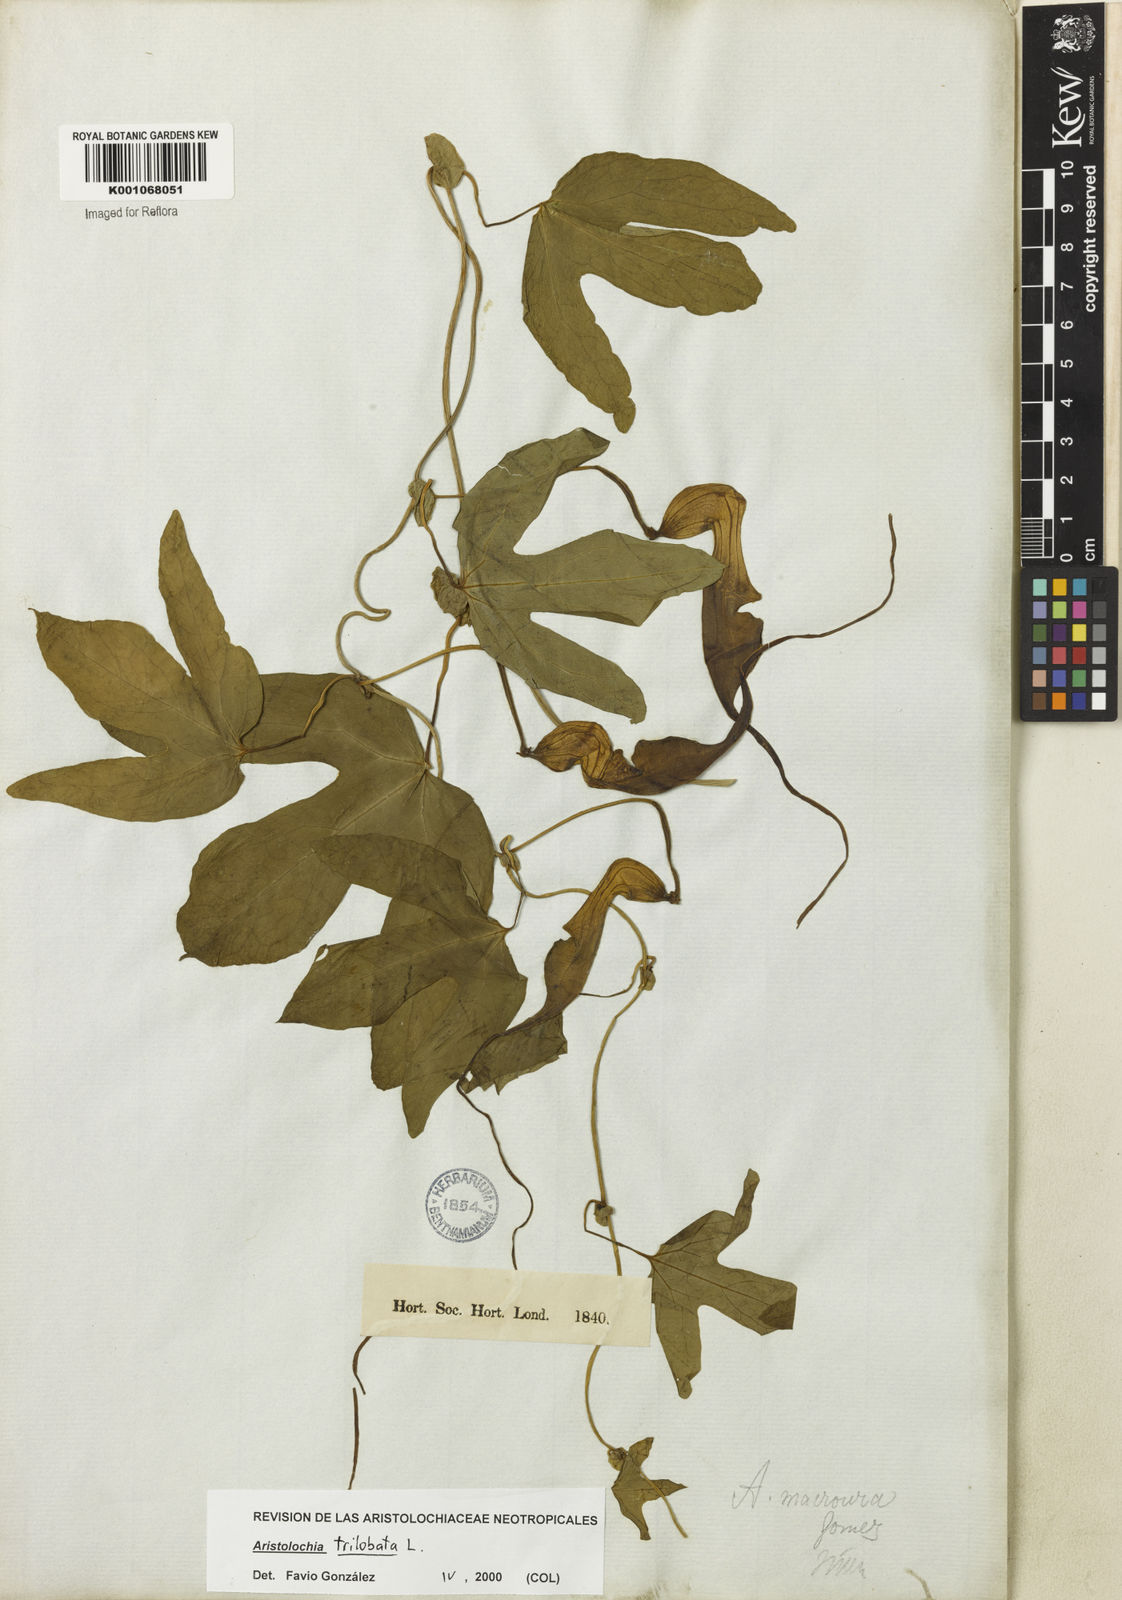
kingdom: Plantae
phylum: Tracheophyta
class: Magnoliopsida
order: Piperales
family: Aristolochiaceae
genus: Aristolochia
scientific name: Aristolochia trilobata
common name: Dutchman's pipe
